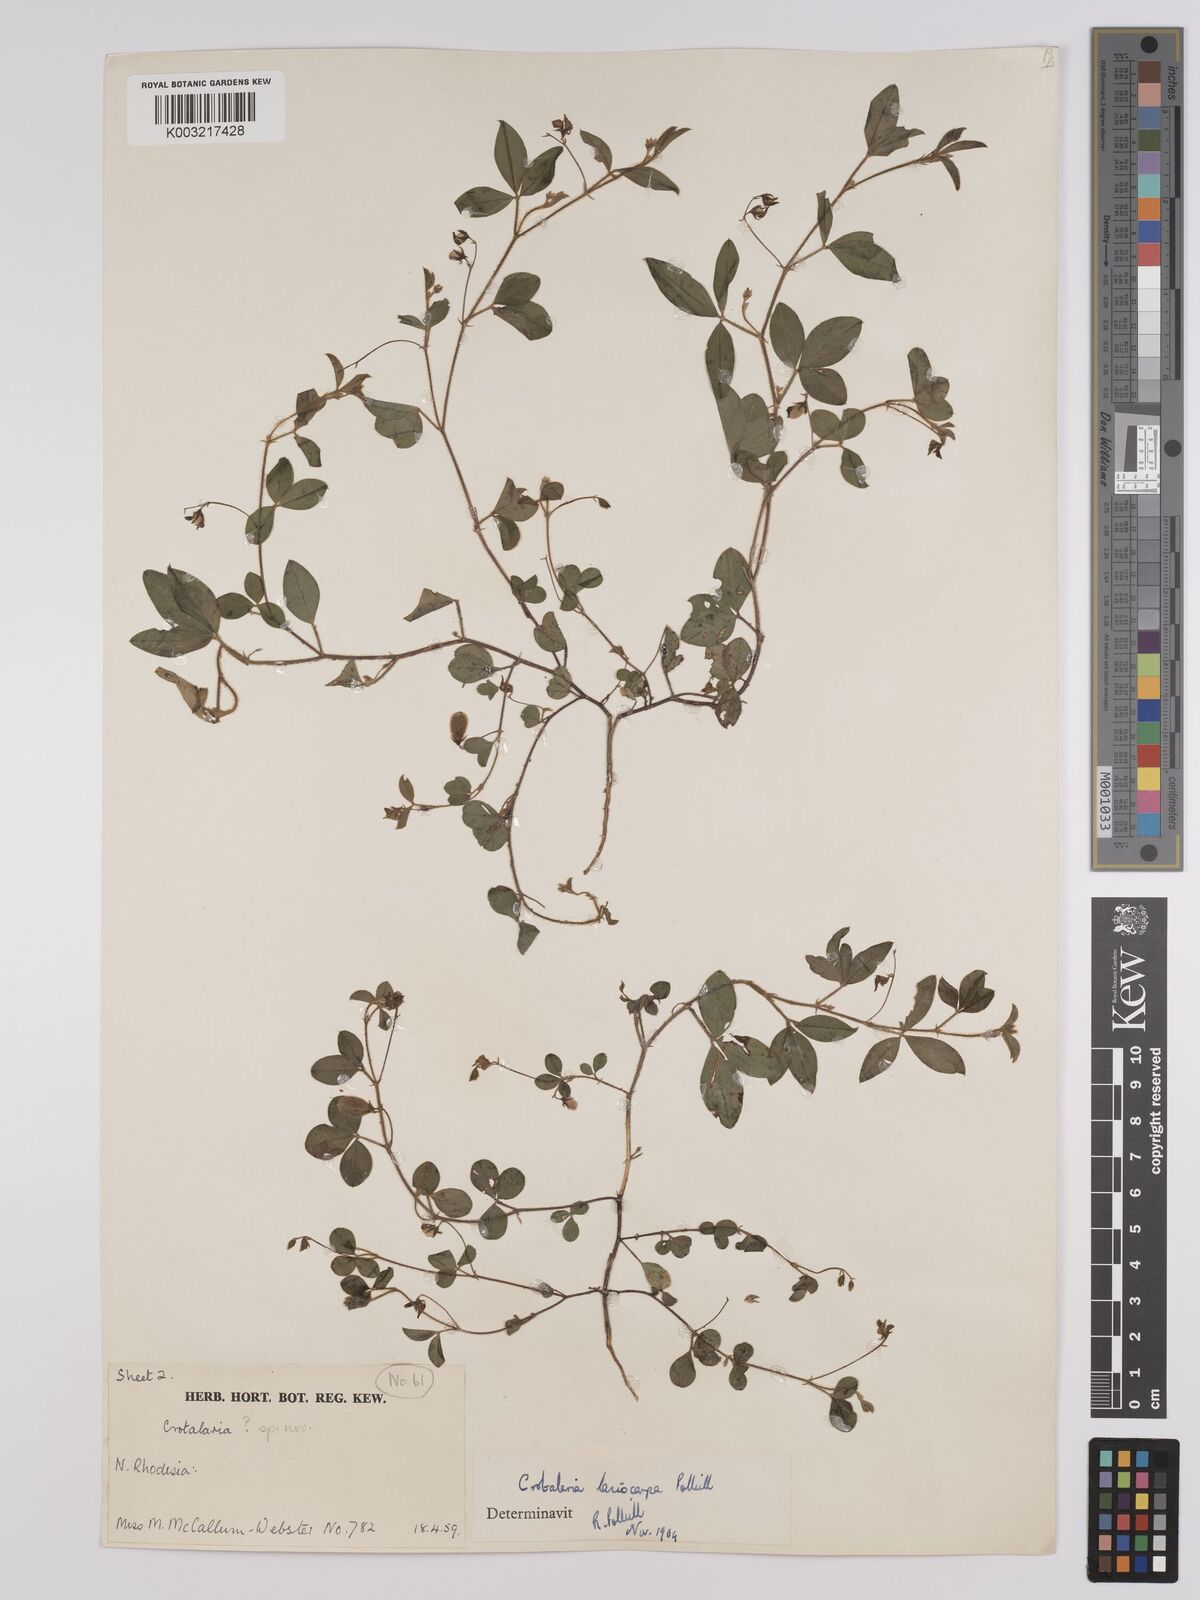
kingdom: Plantae
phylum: Tracheophyta
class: Magnoliopsida
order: Fabales
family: Fabaceae
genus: Crotalaria
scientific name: Crotalaria lasiocarpa
